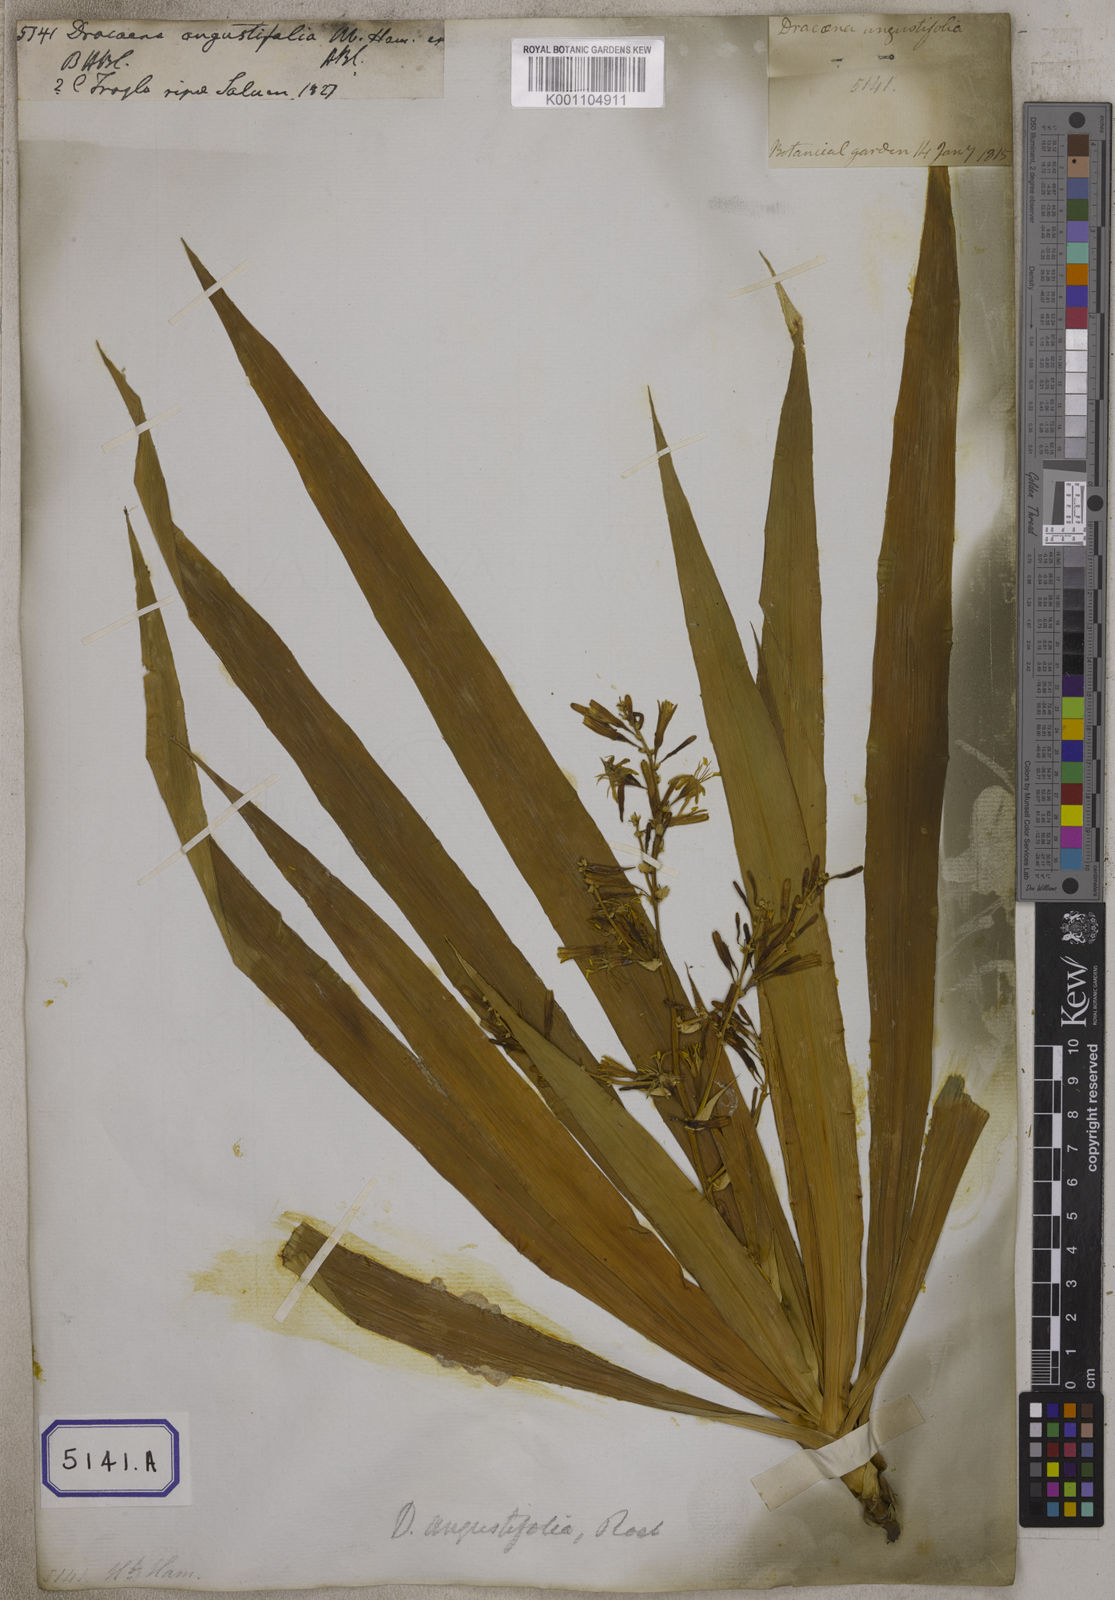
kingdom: Plantae
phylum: Tracheophyta
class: Liliopsida
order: Asparagales
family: Asparagaceae
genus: Dracaena
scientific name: Dracaena angustifolia
